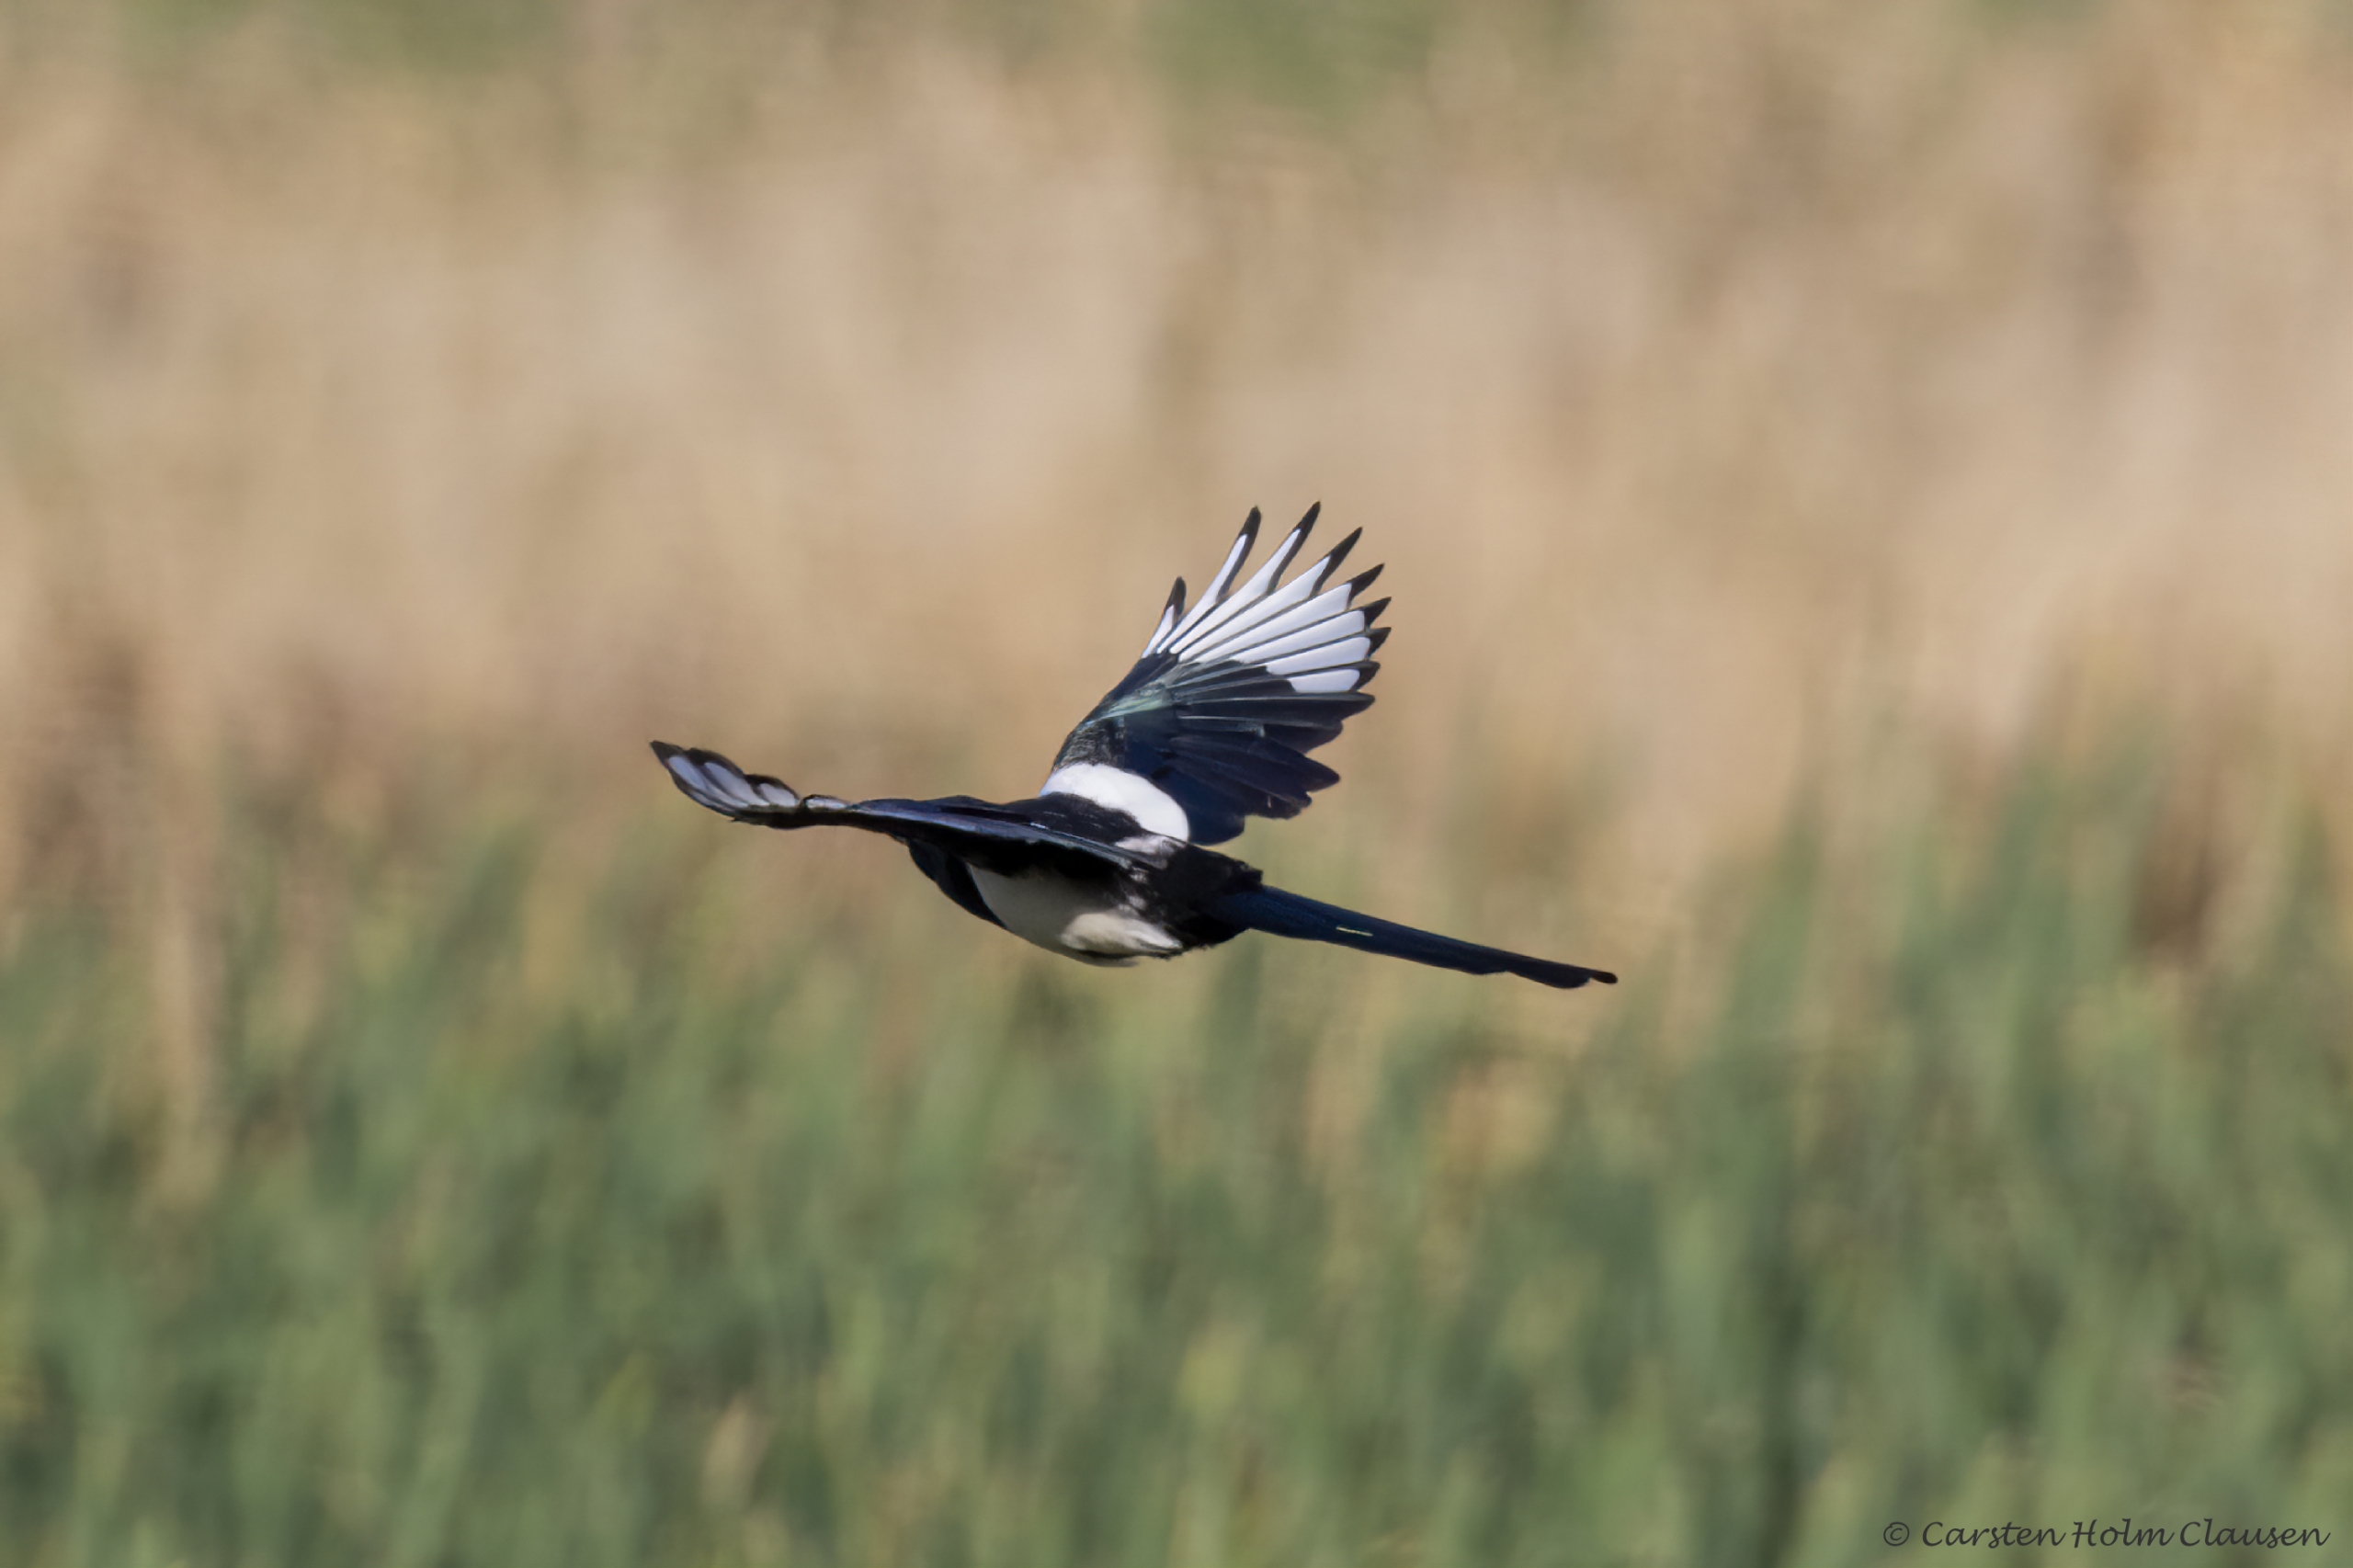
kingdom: Animalia
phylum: Chordata
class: Aves
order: Passeriformes
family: Corvidae
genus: Pica
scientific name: Pica pica
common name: Husskade
